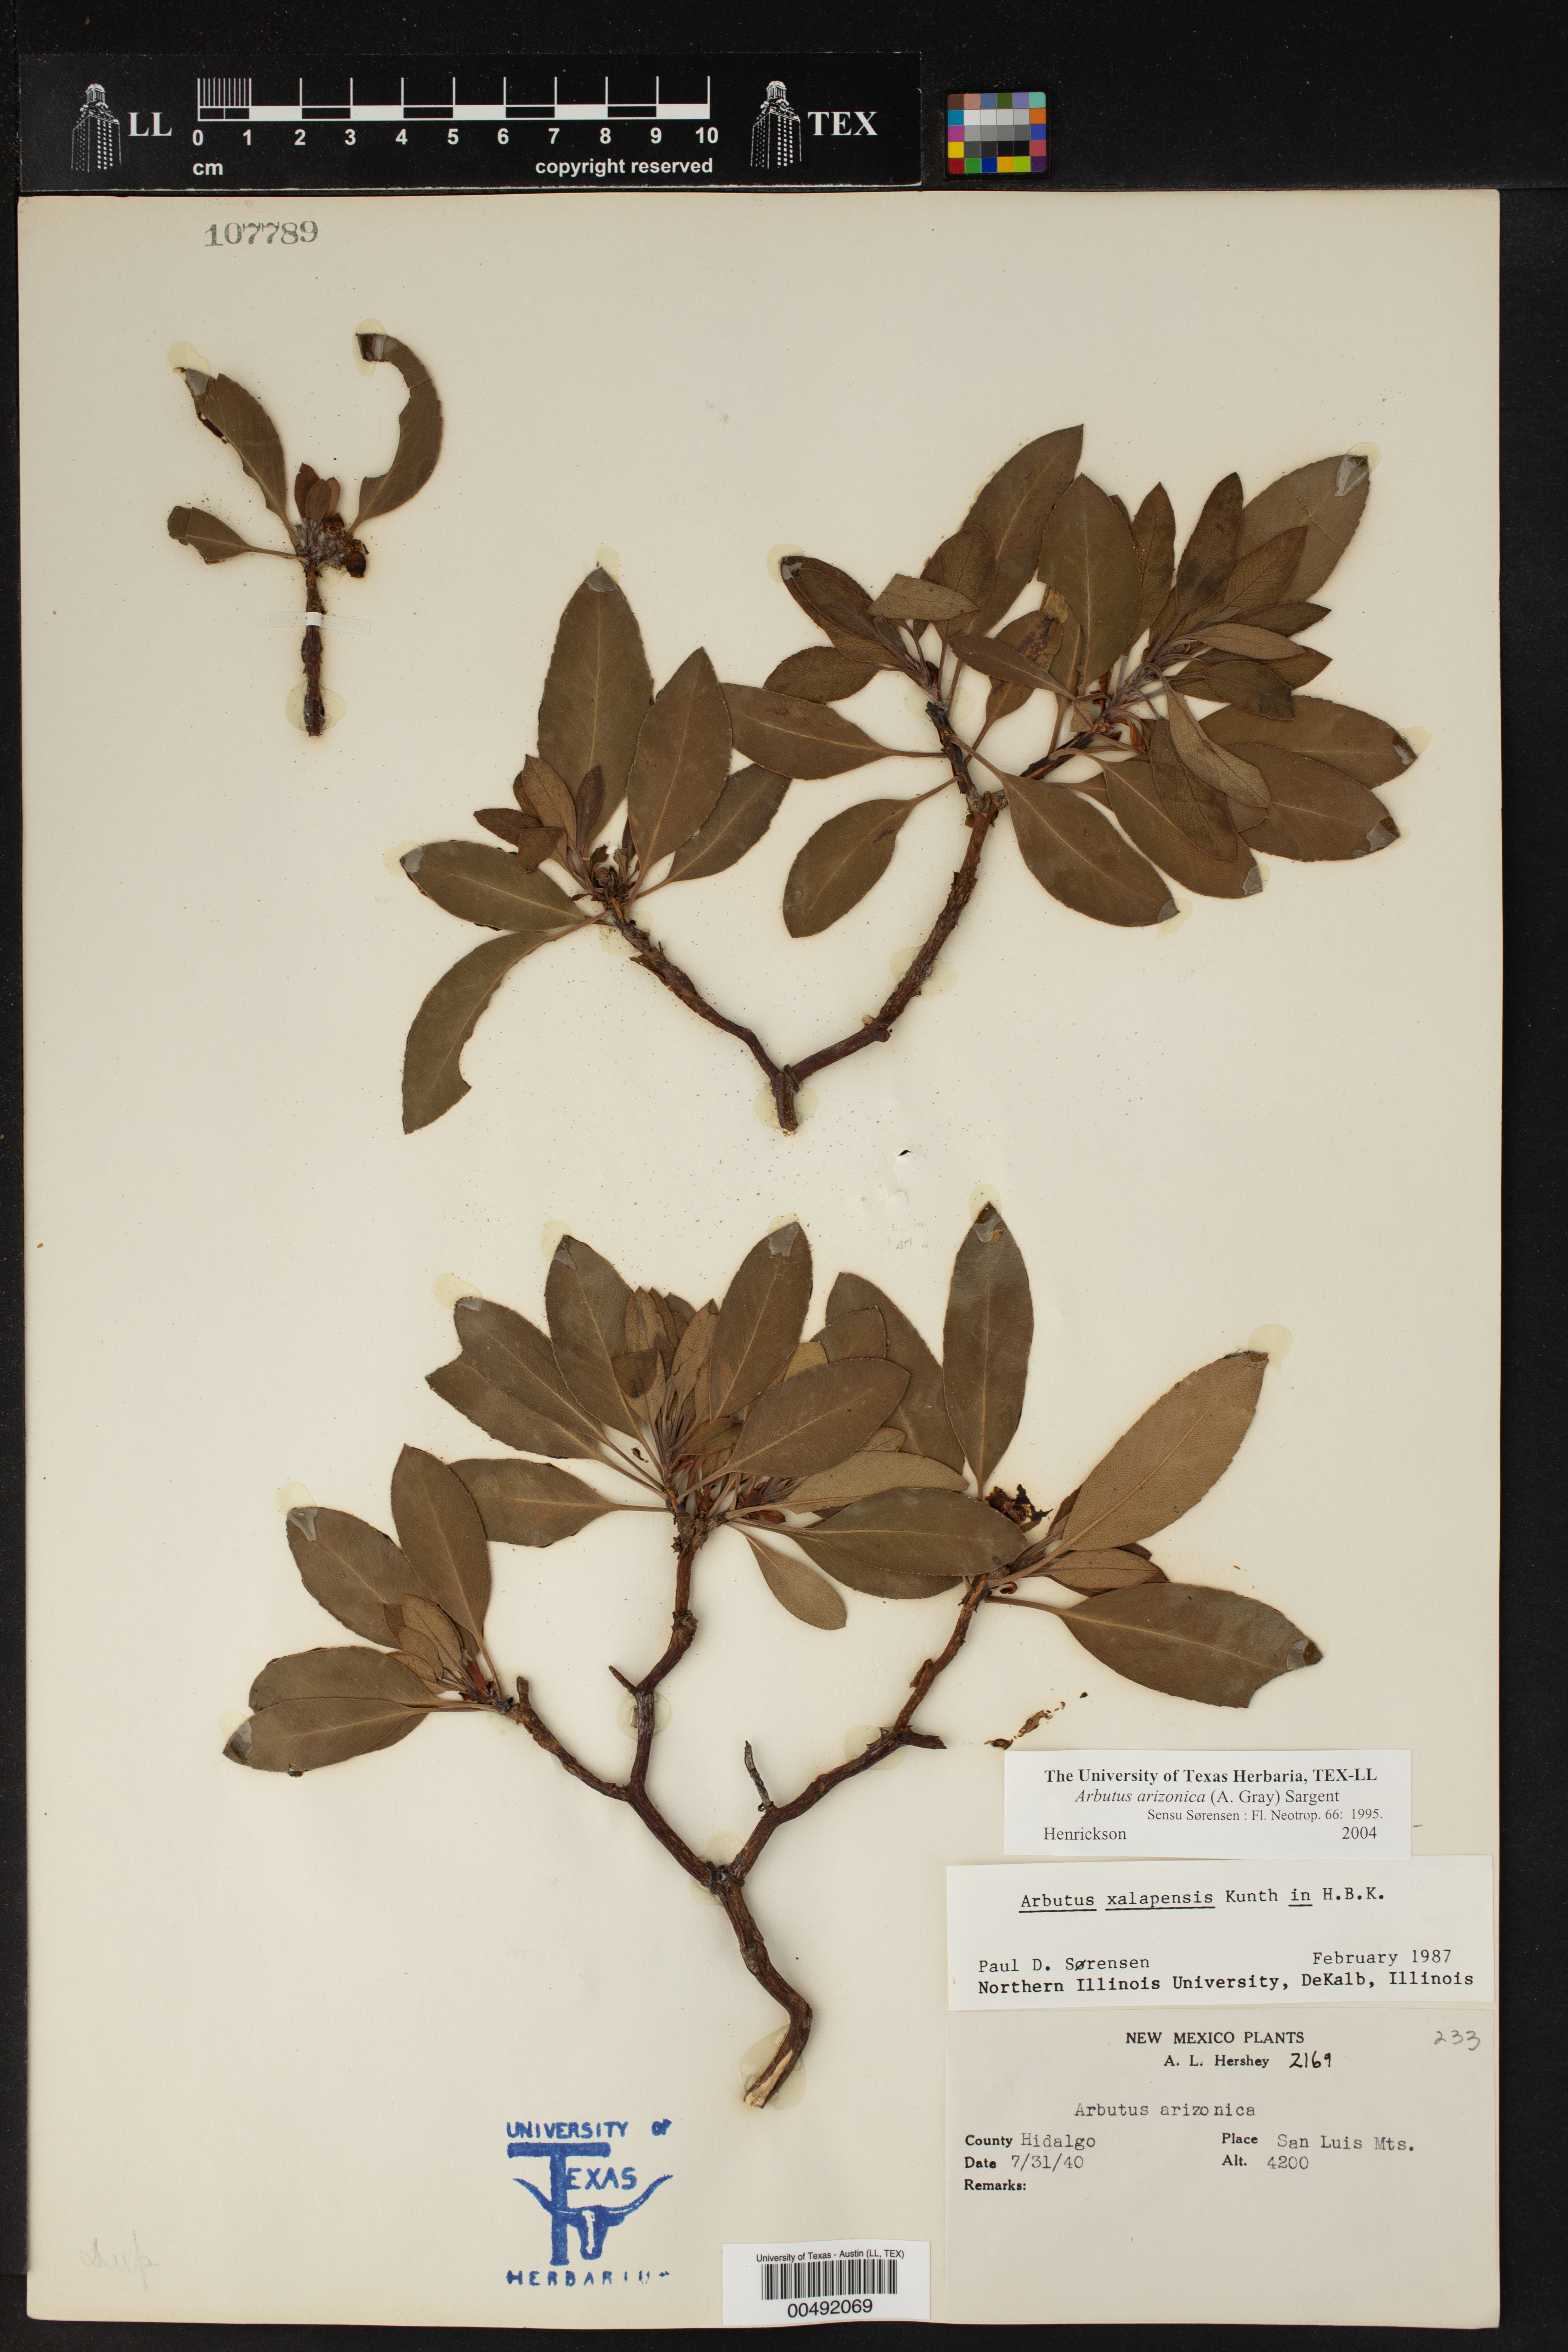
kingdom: Plantae
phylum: Tracheophyta
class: Magnoliopsida
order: Ericales
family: Ericaceae
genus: Arbutus
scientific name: Arbutus arizonica
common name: Arizona madrone
